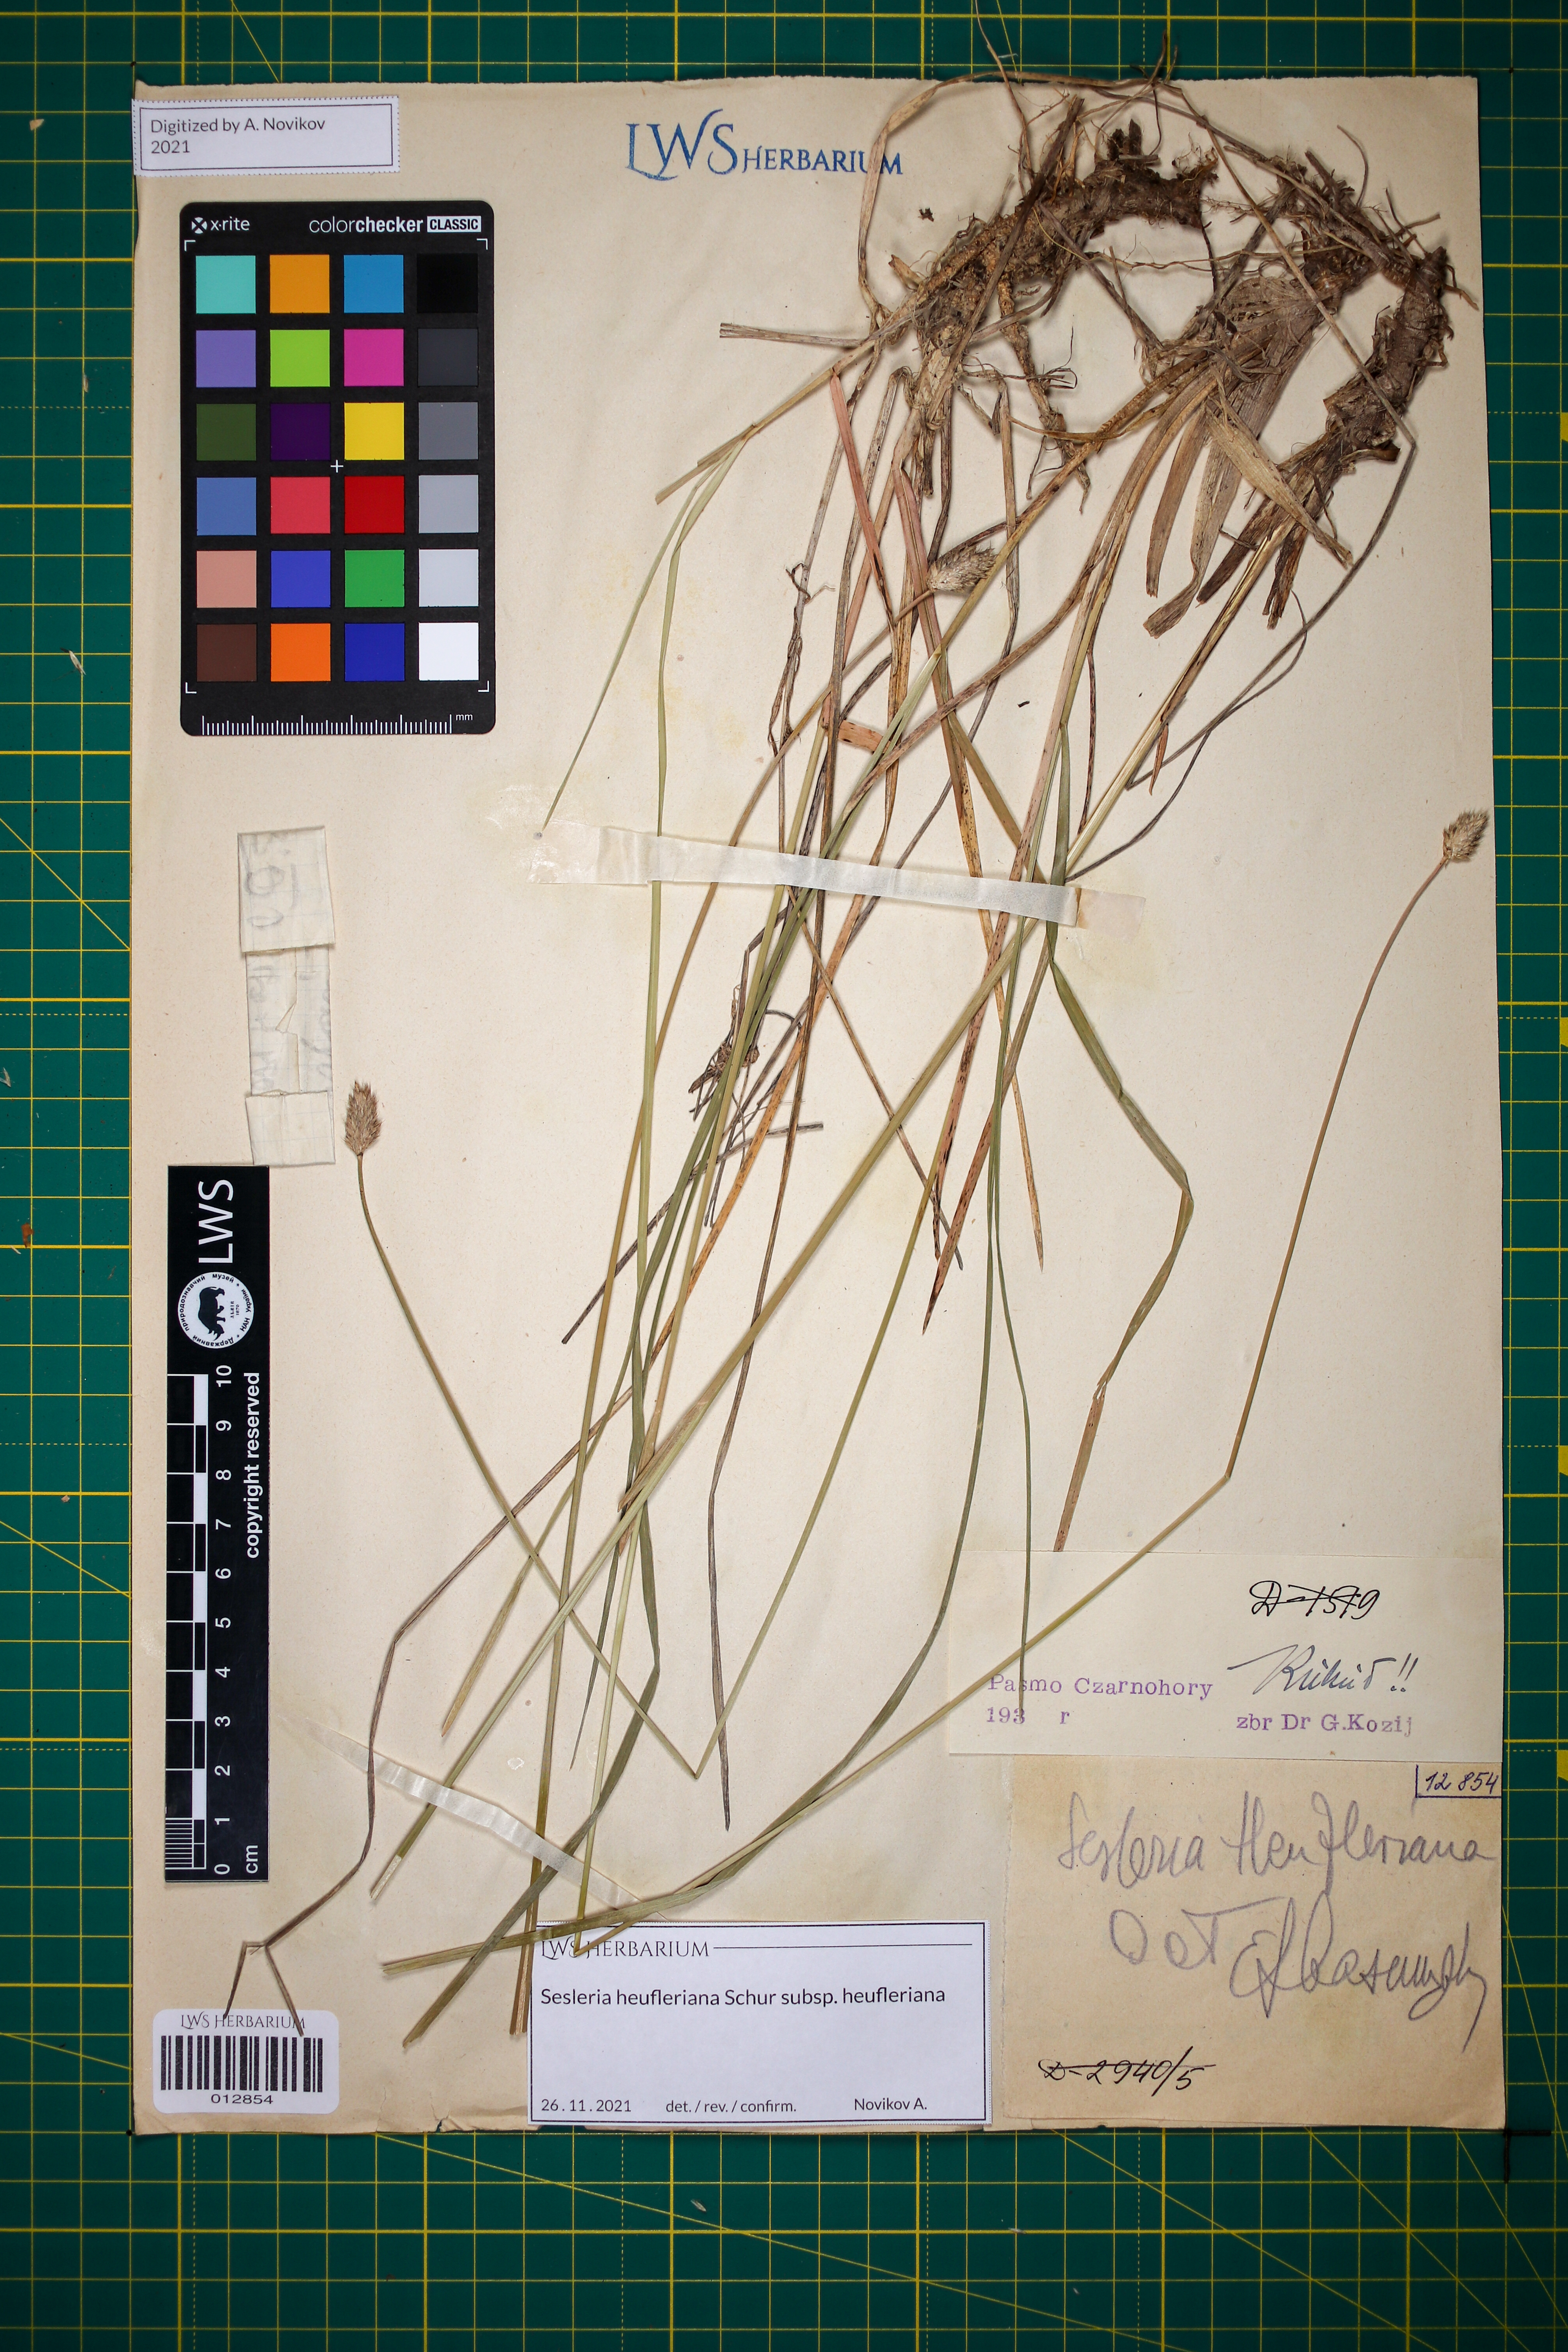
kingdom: Plantae
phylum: Tracheophyta
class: Liliopsida
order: Poales
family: Poaceae
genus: Sesleria
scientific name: Sesleria heufleriana
